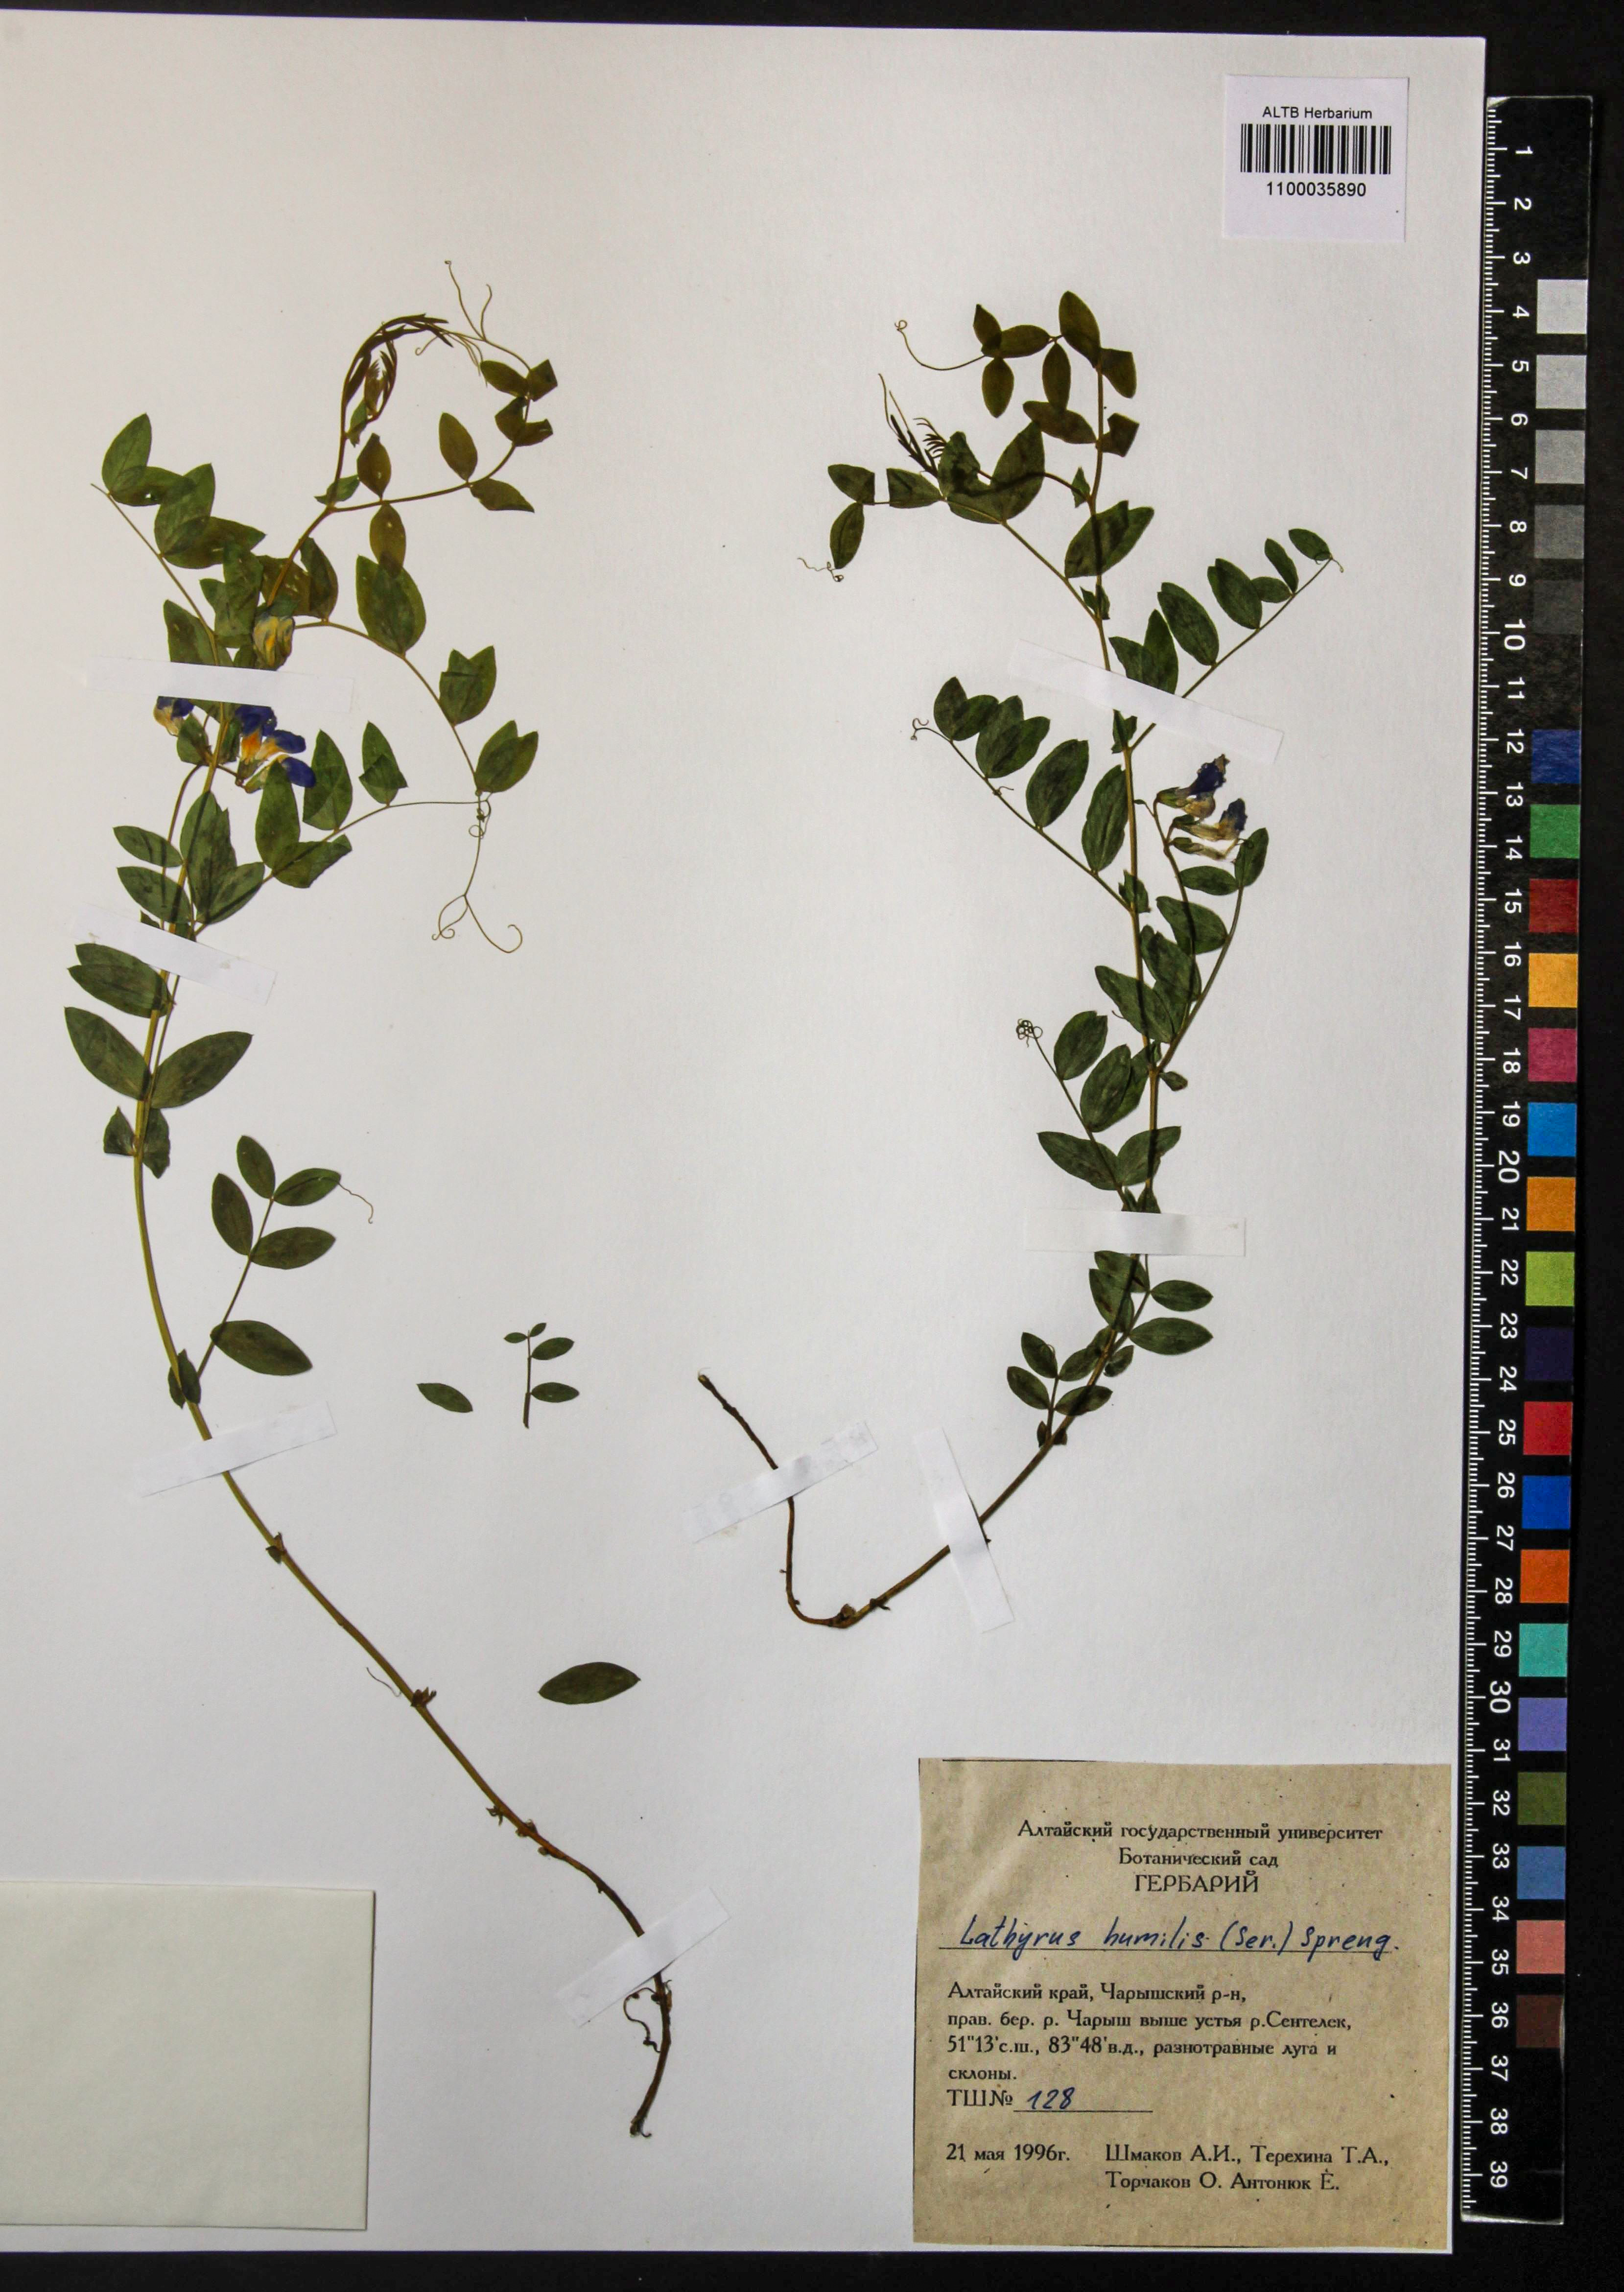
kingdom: Plantae
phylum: Tracheophyta
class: Magnoliopsida
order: Fabales
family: Fabaceae
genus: Lathyrus
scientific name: Lathyrus humilis
